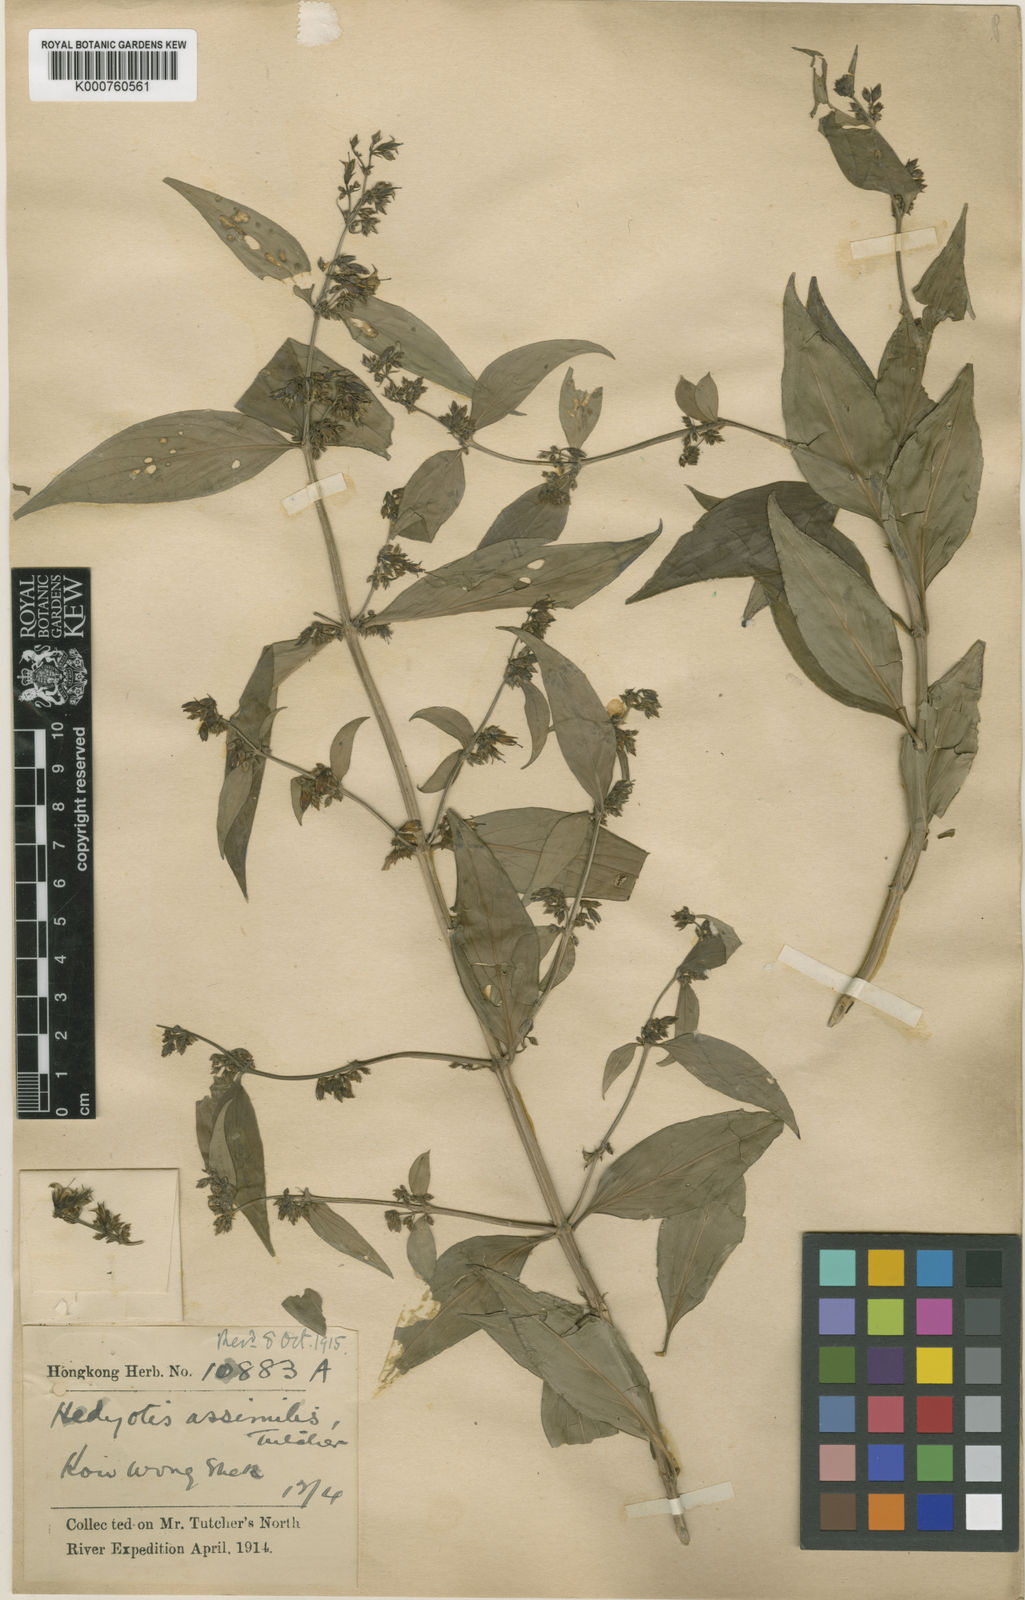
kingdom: Plantae
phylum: Tracheophyta
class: Magnoliopsida
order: Gentianales
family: Rubiaceae
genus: Hedyotis
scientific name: Hedyotis matthewii
